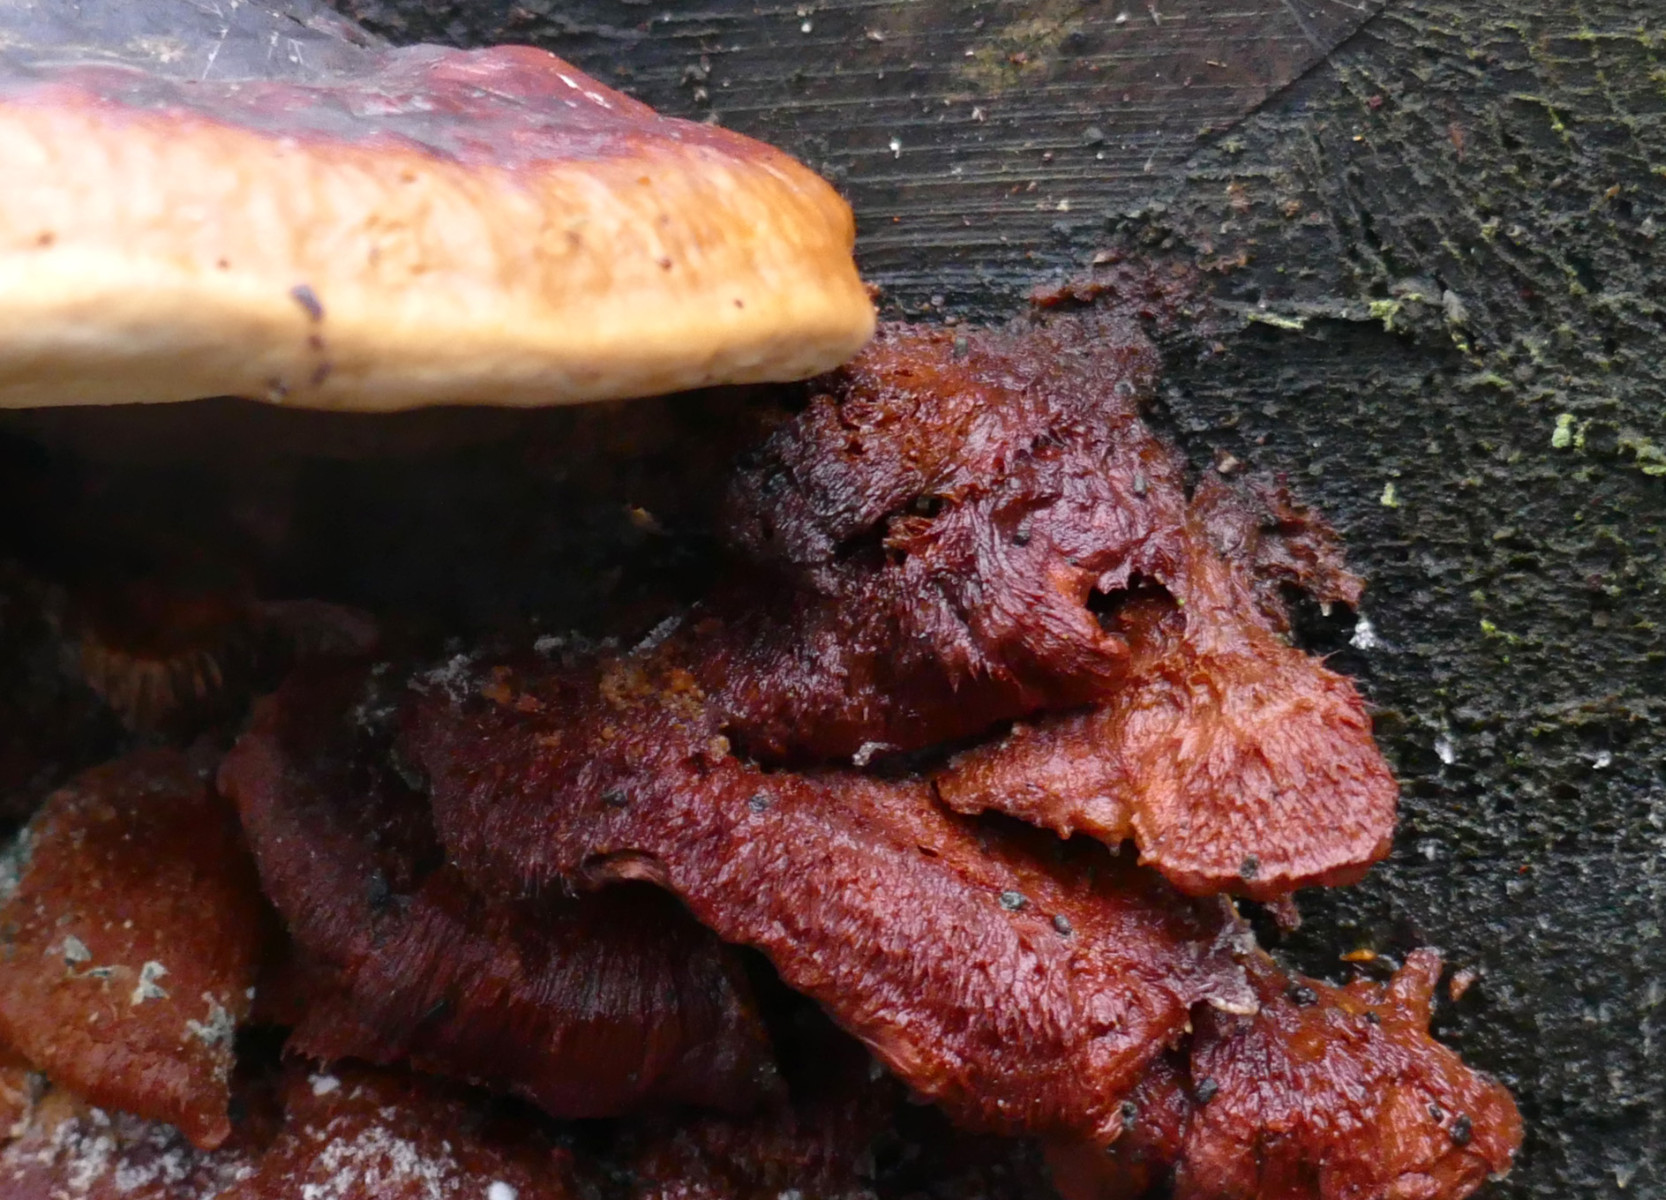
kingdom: Fungi
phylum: Basidiomycota
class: Agaricomycetes
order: Polyporales
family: Pycnoporellaceae
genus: Pycnoporellus
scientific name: Pycnoporellus fulgens
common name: flammeporesvamp
